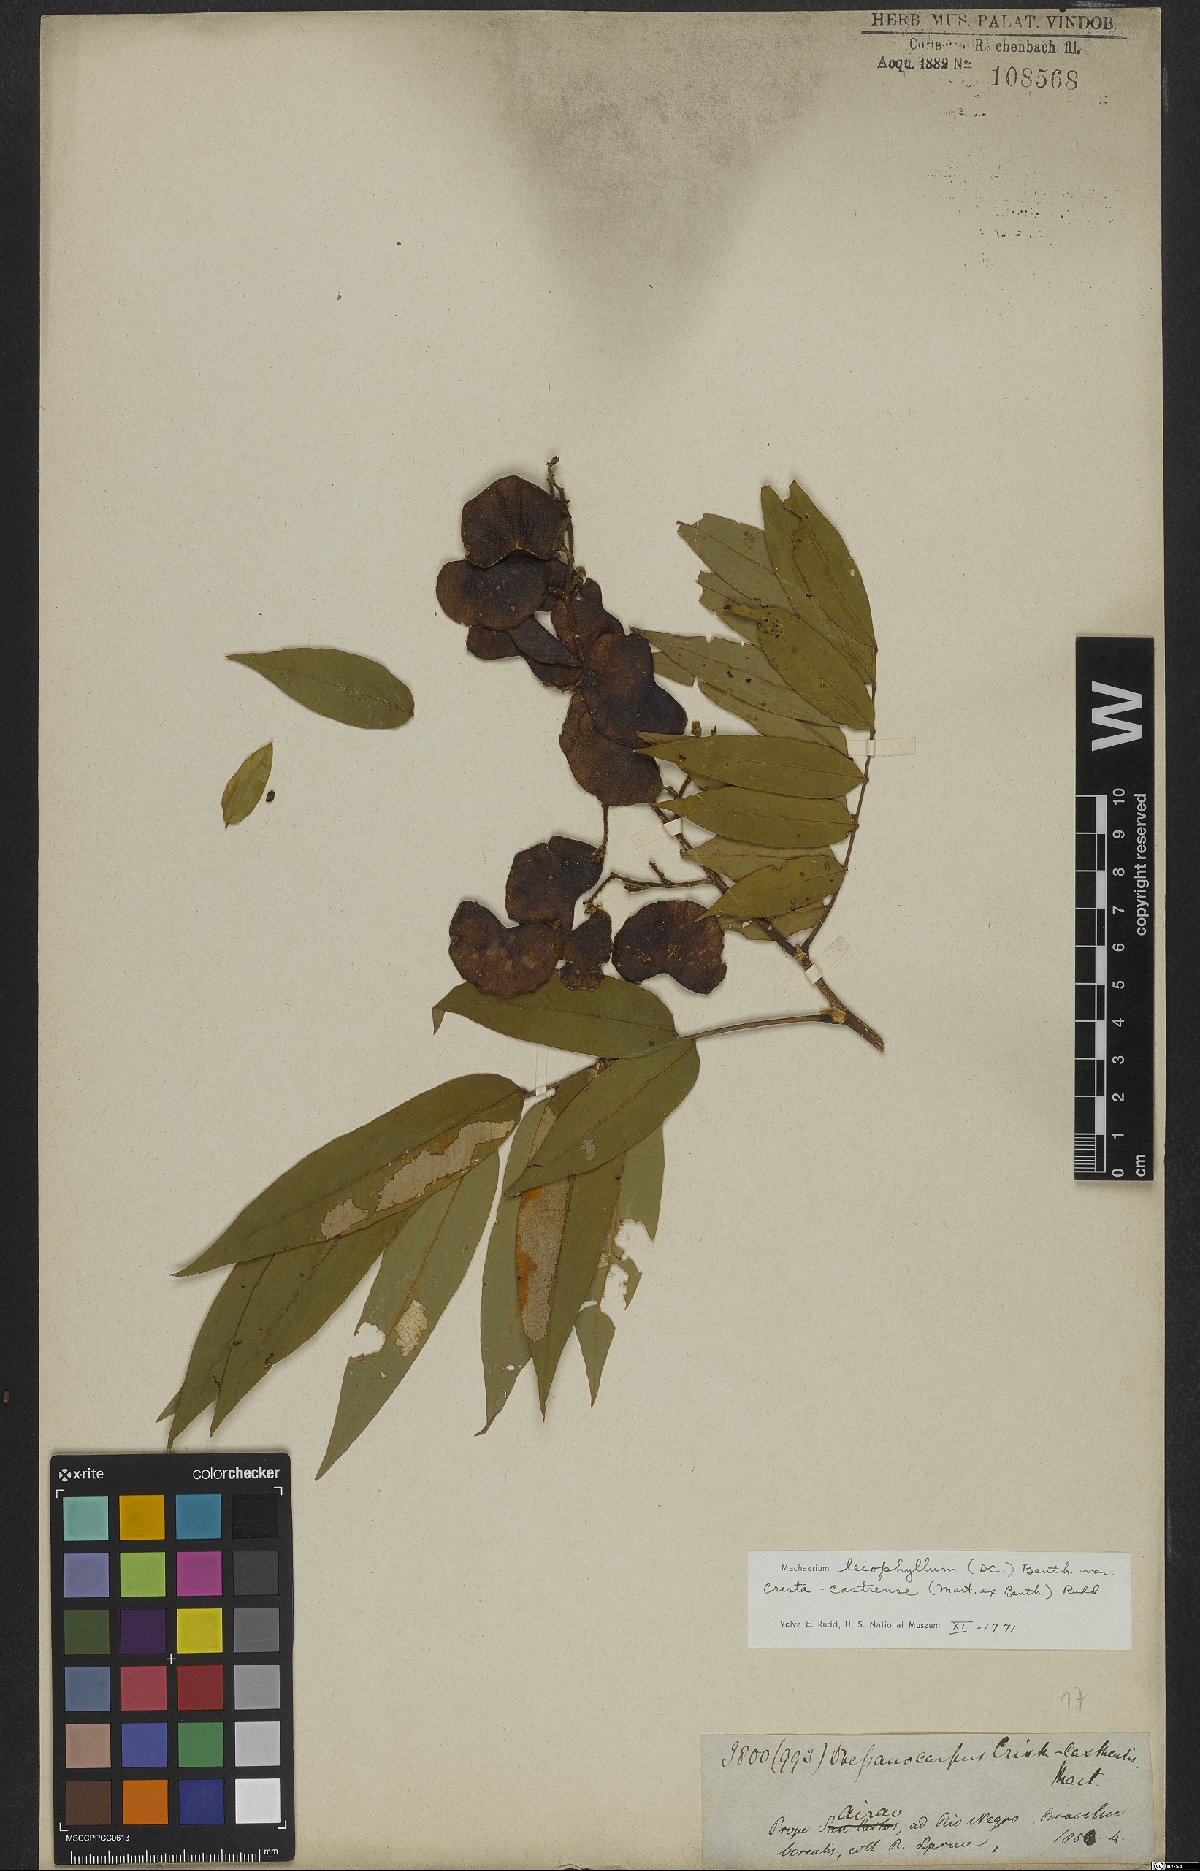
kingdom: Plantae
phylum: Tracheophyta
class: Magnoliopsida
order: Fabales
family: Fabaceae
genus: Machaerium
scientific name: Machaerium leiophyllum
